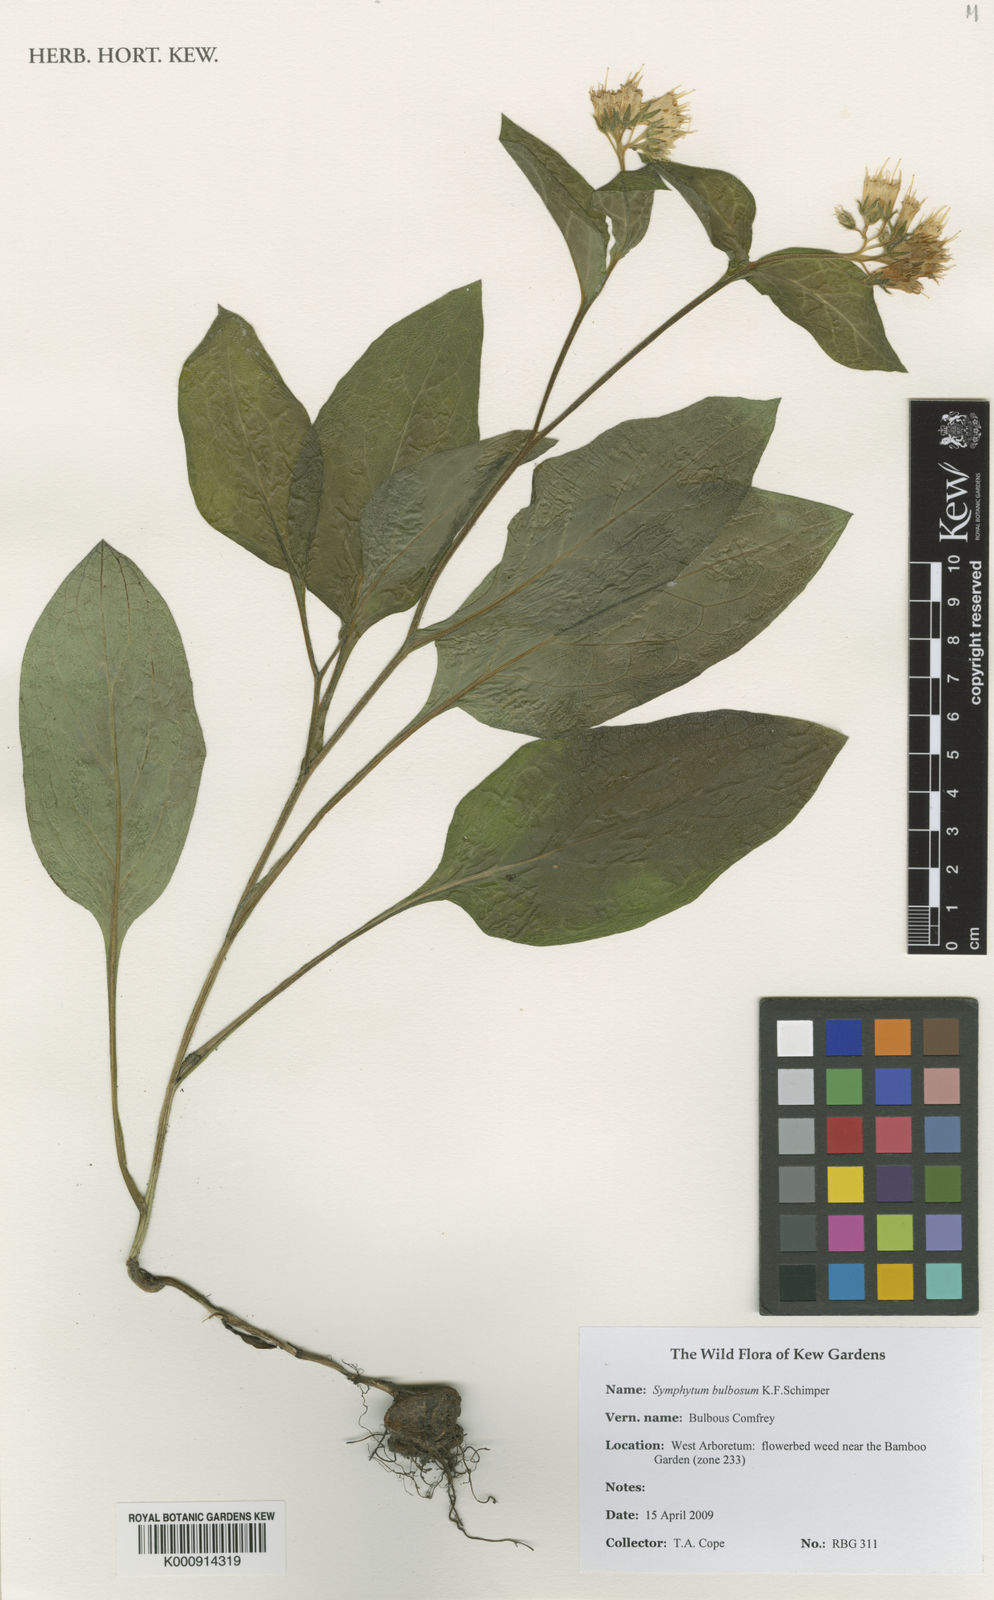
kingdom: Plantae
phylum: Tracheophyta
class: Magnoliopsida
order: Boraginales
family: Boraginaceae
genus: Symphytum
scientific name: Symphytum bulbosum
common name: Bulbous comfrey
